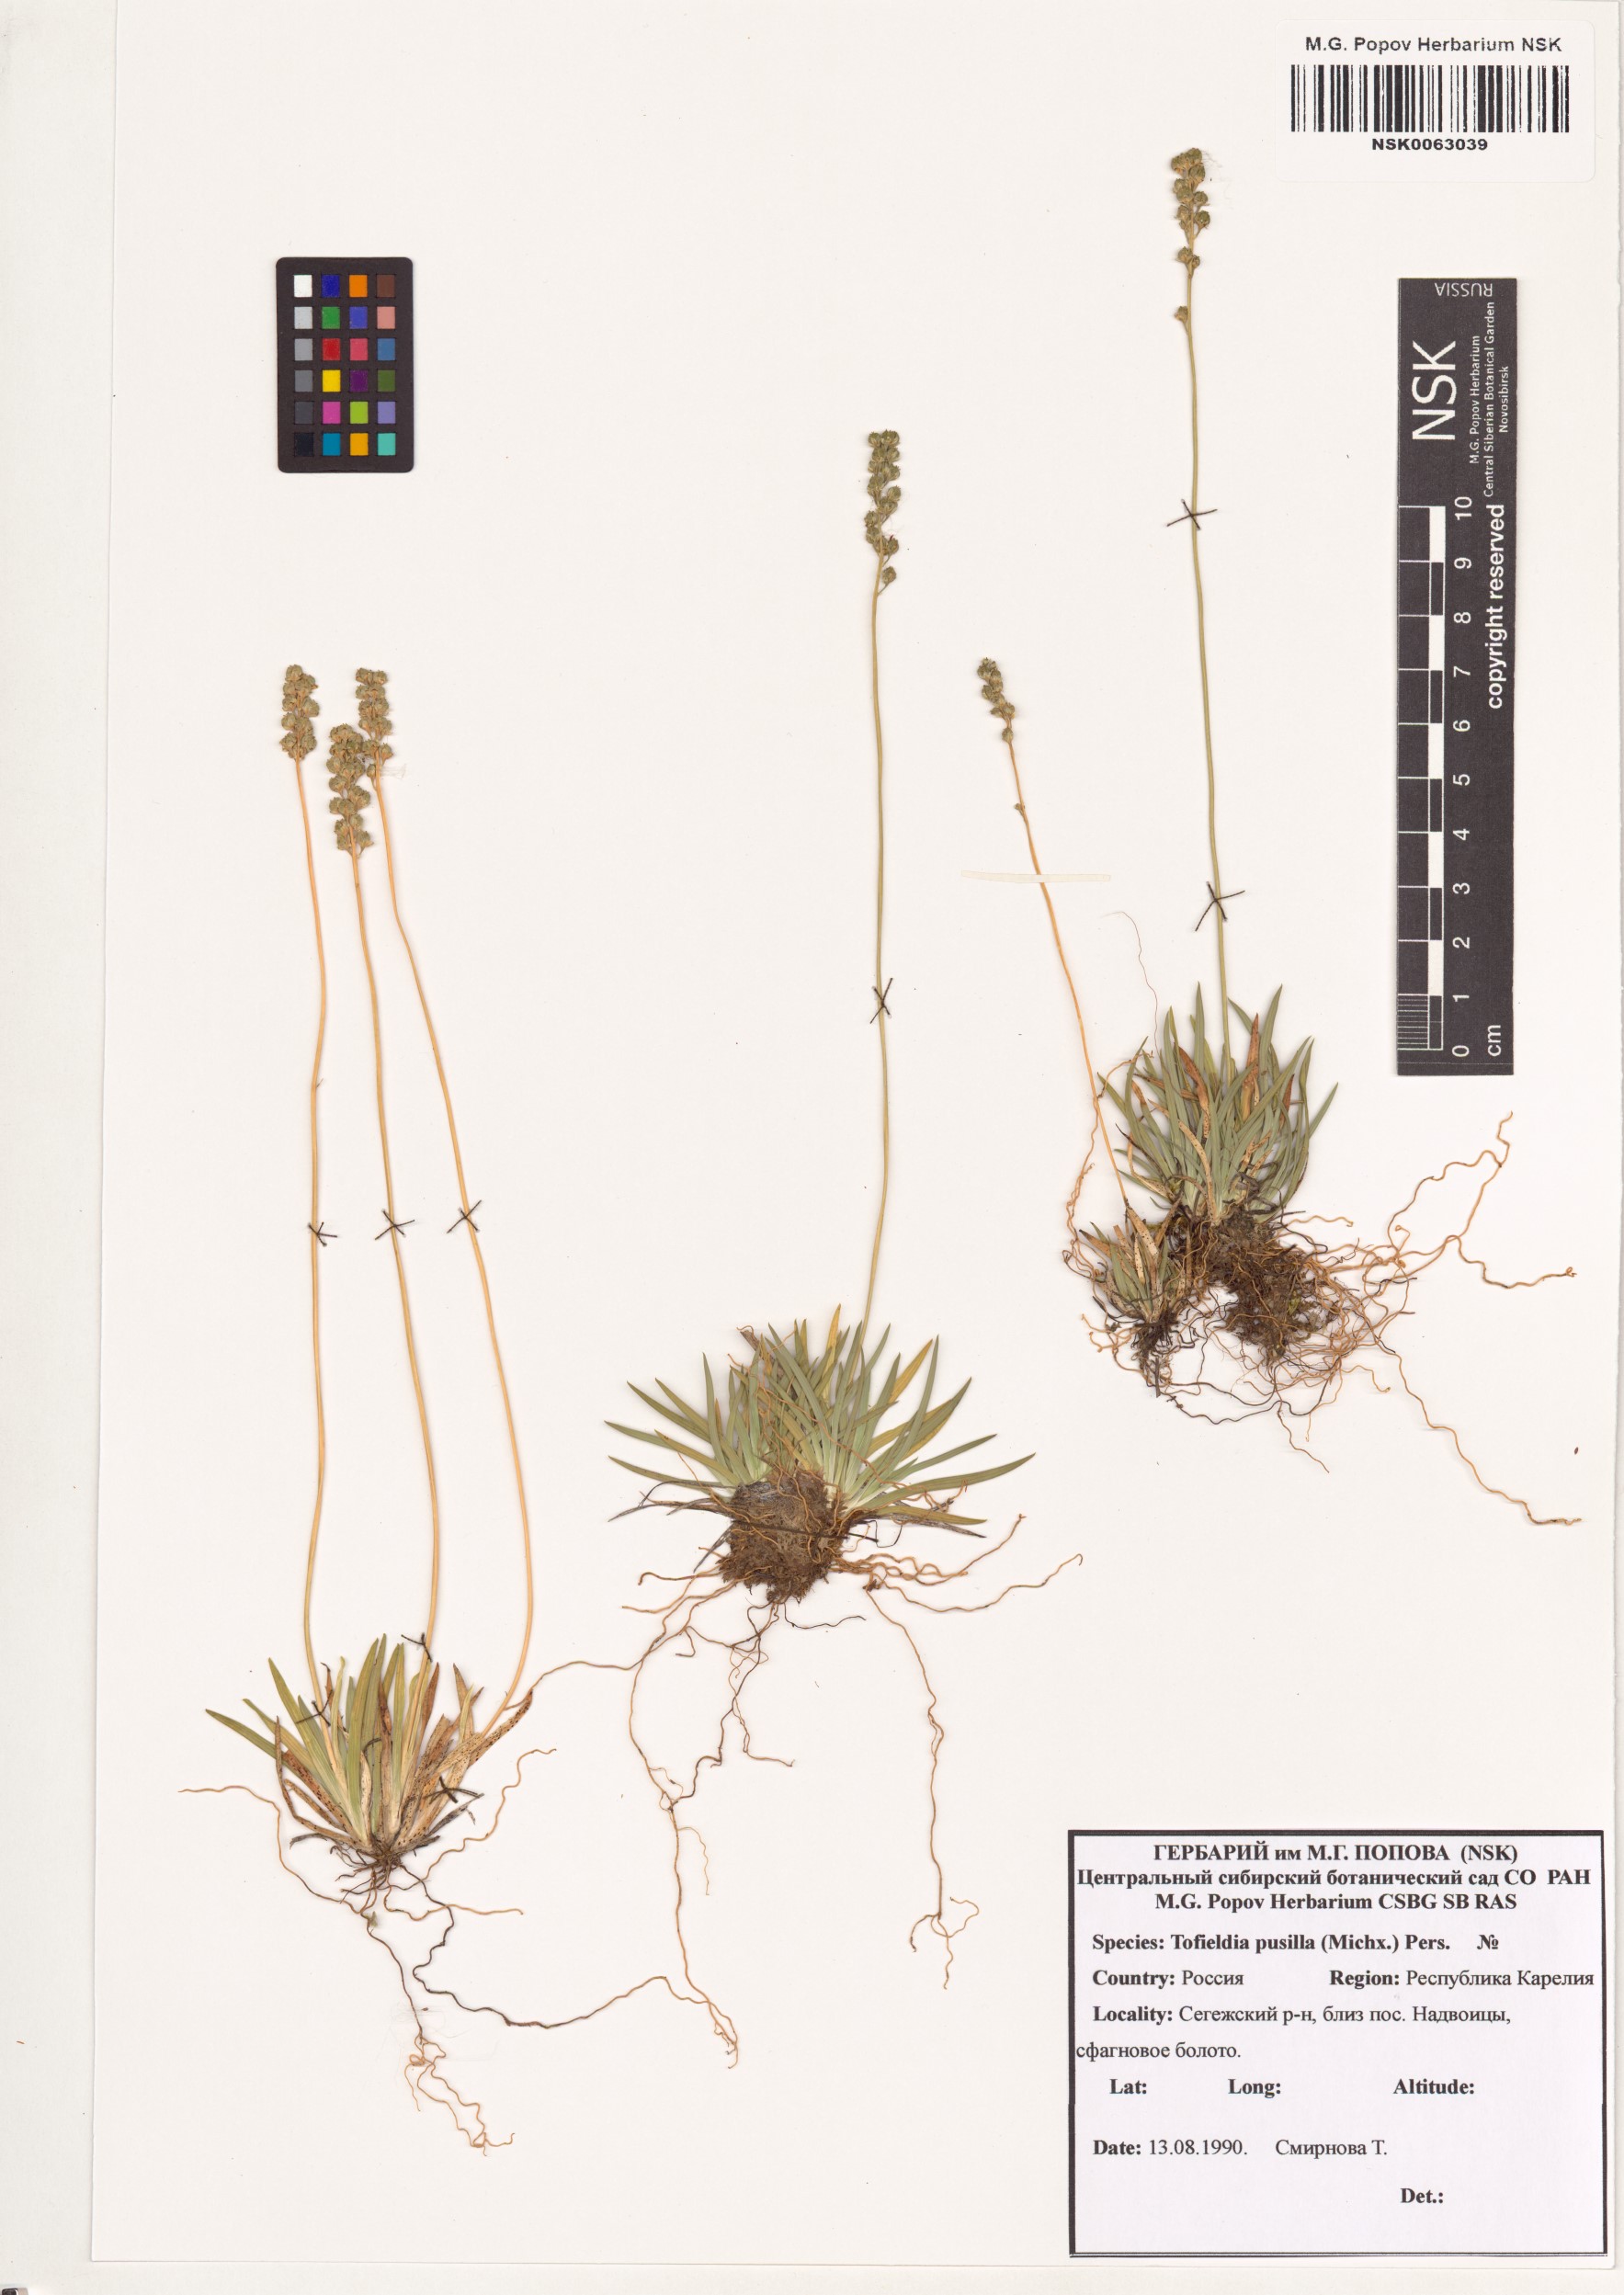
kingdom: Plantae
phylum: Tracheophyta
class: Liliopsida
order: Alismatales
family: Tofieldiaceae
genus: Tofieldia
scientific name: Tofieldia pusilla
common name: Scottish false asphodel
